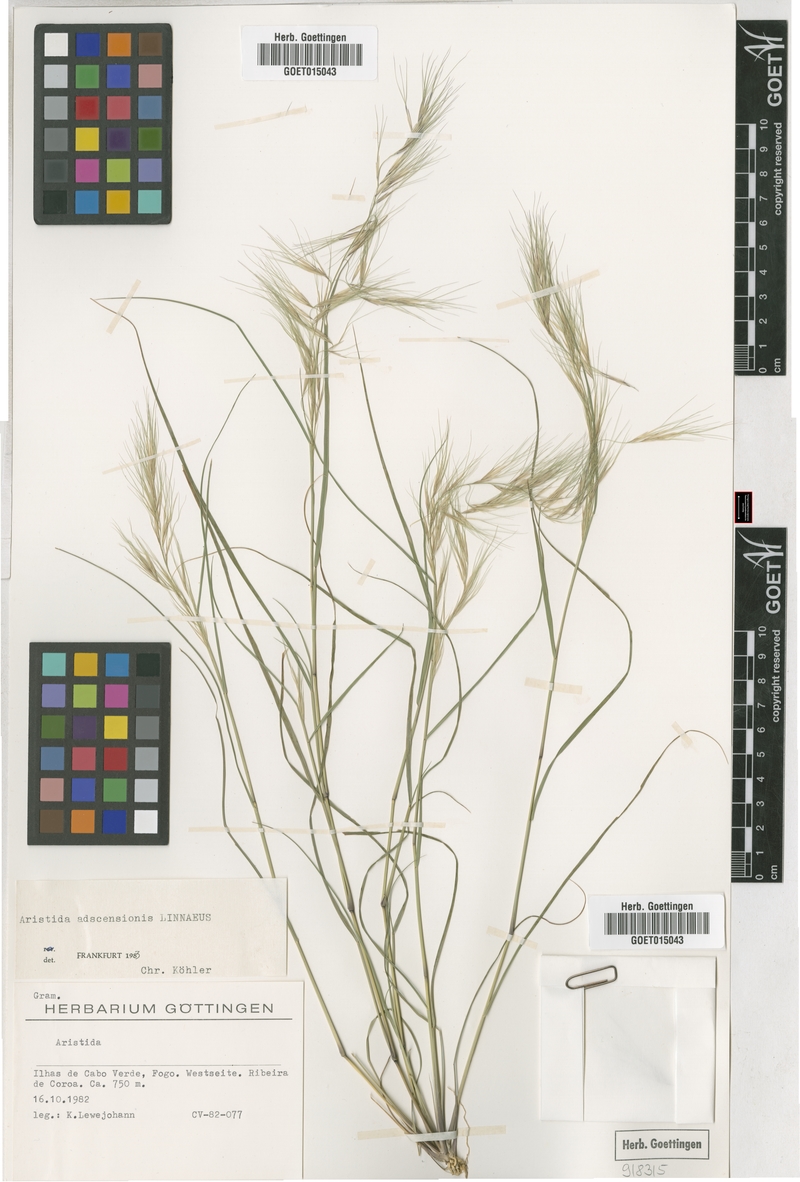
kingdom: Plantae
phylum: Tracheophyta
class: Liliopsida
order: Poales
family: Poaceae
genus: Aristida
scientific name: Aristida adscensionis
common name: Sixweeks threeawn
